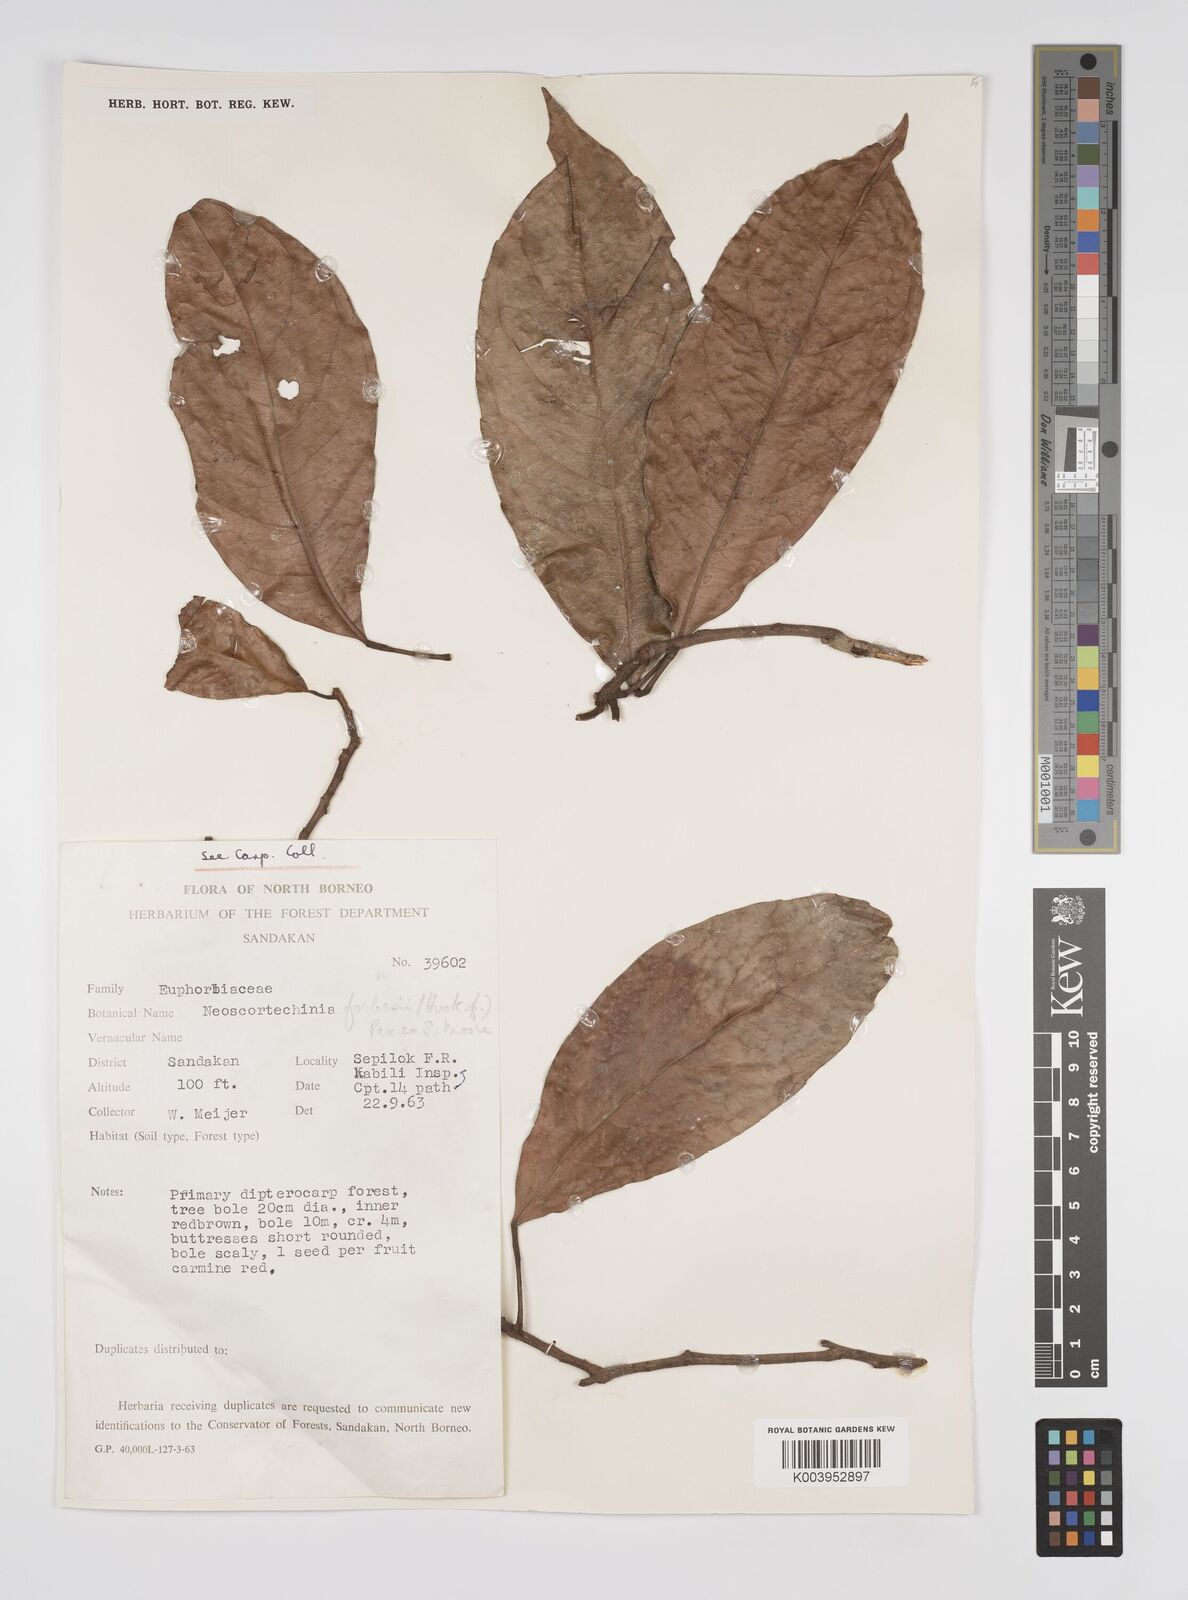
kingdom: Plantae
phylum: Tracheophyta
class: Magnoliopsida
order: Malpighiales
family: Euphorbiaceae
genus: Neoscortechinia
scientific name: Neoscortechinia philippinensis
